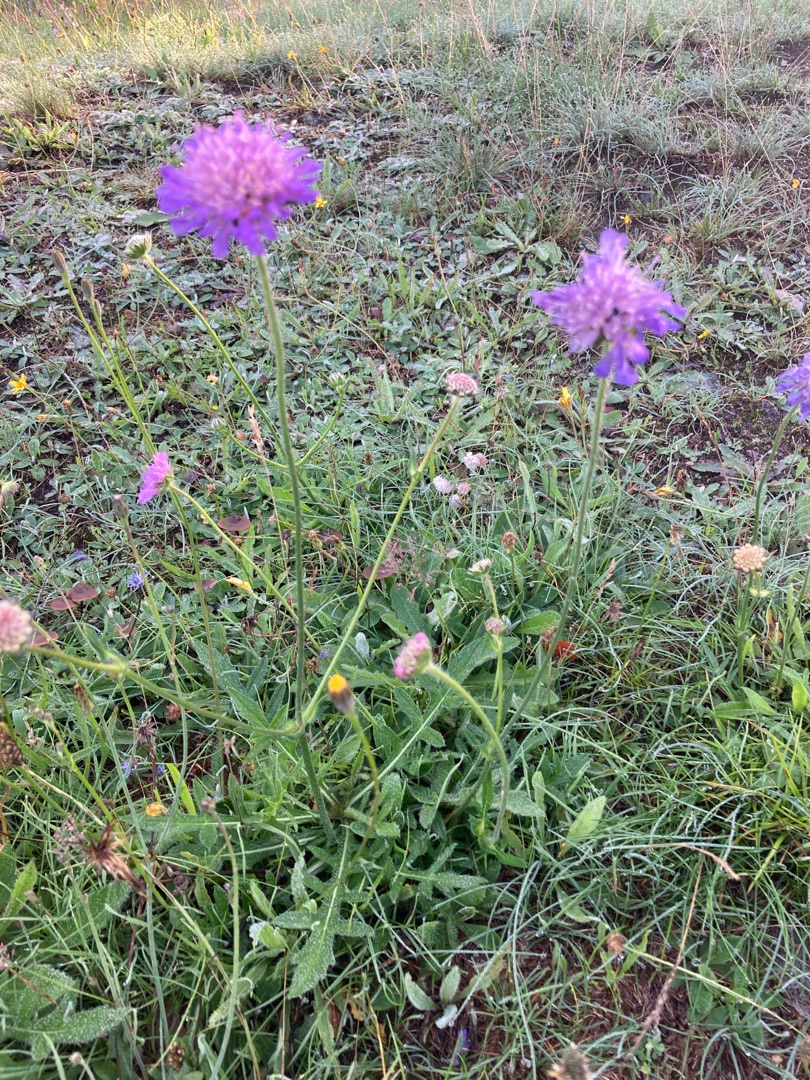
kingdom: Plantae
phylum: Tracheophyta
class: Magnoliopsida
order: Dipsacales
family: Caprifoliaceae
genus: Knautia
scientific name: Knautia arvensis
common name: Blåhat
